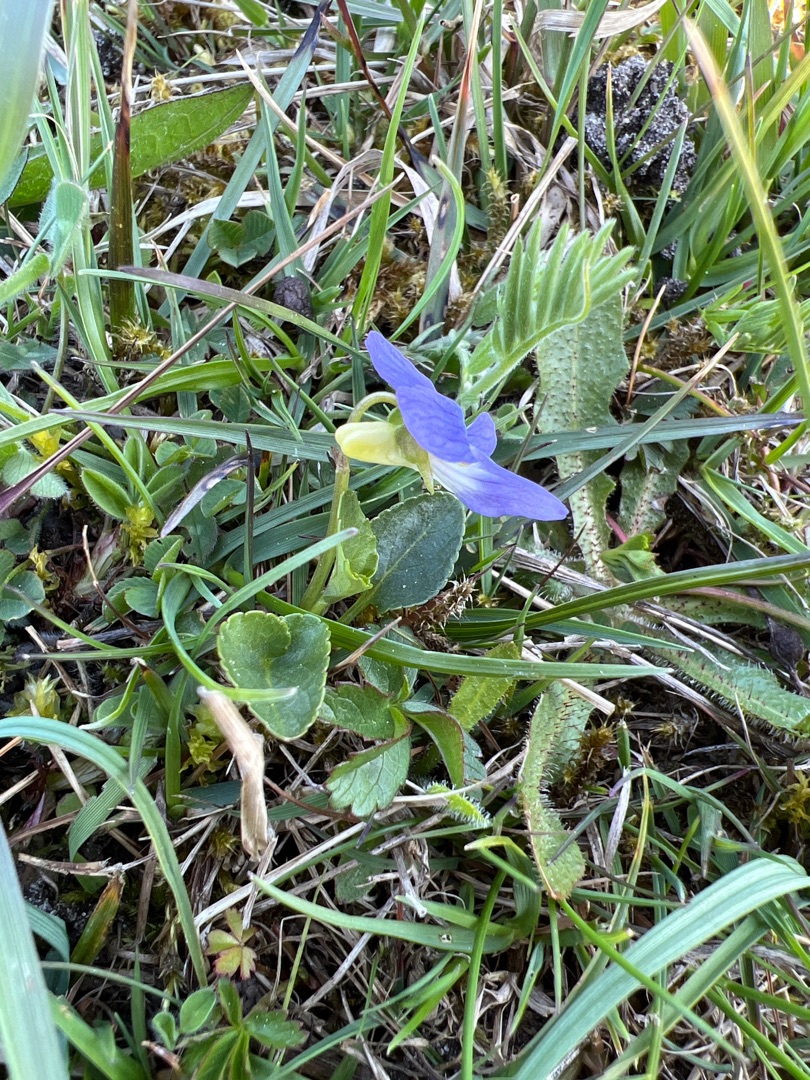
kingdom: Plantae
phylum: Tracheophyta
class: Magnoliopsida
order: Malpighiales
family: Violaceae
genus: Viola
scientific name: Viola canina
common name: Hunde-viol
